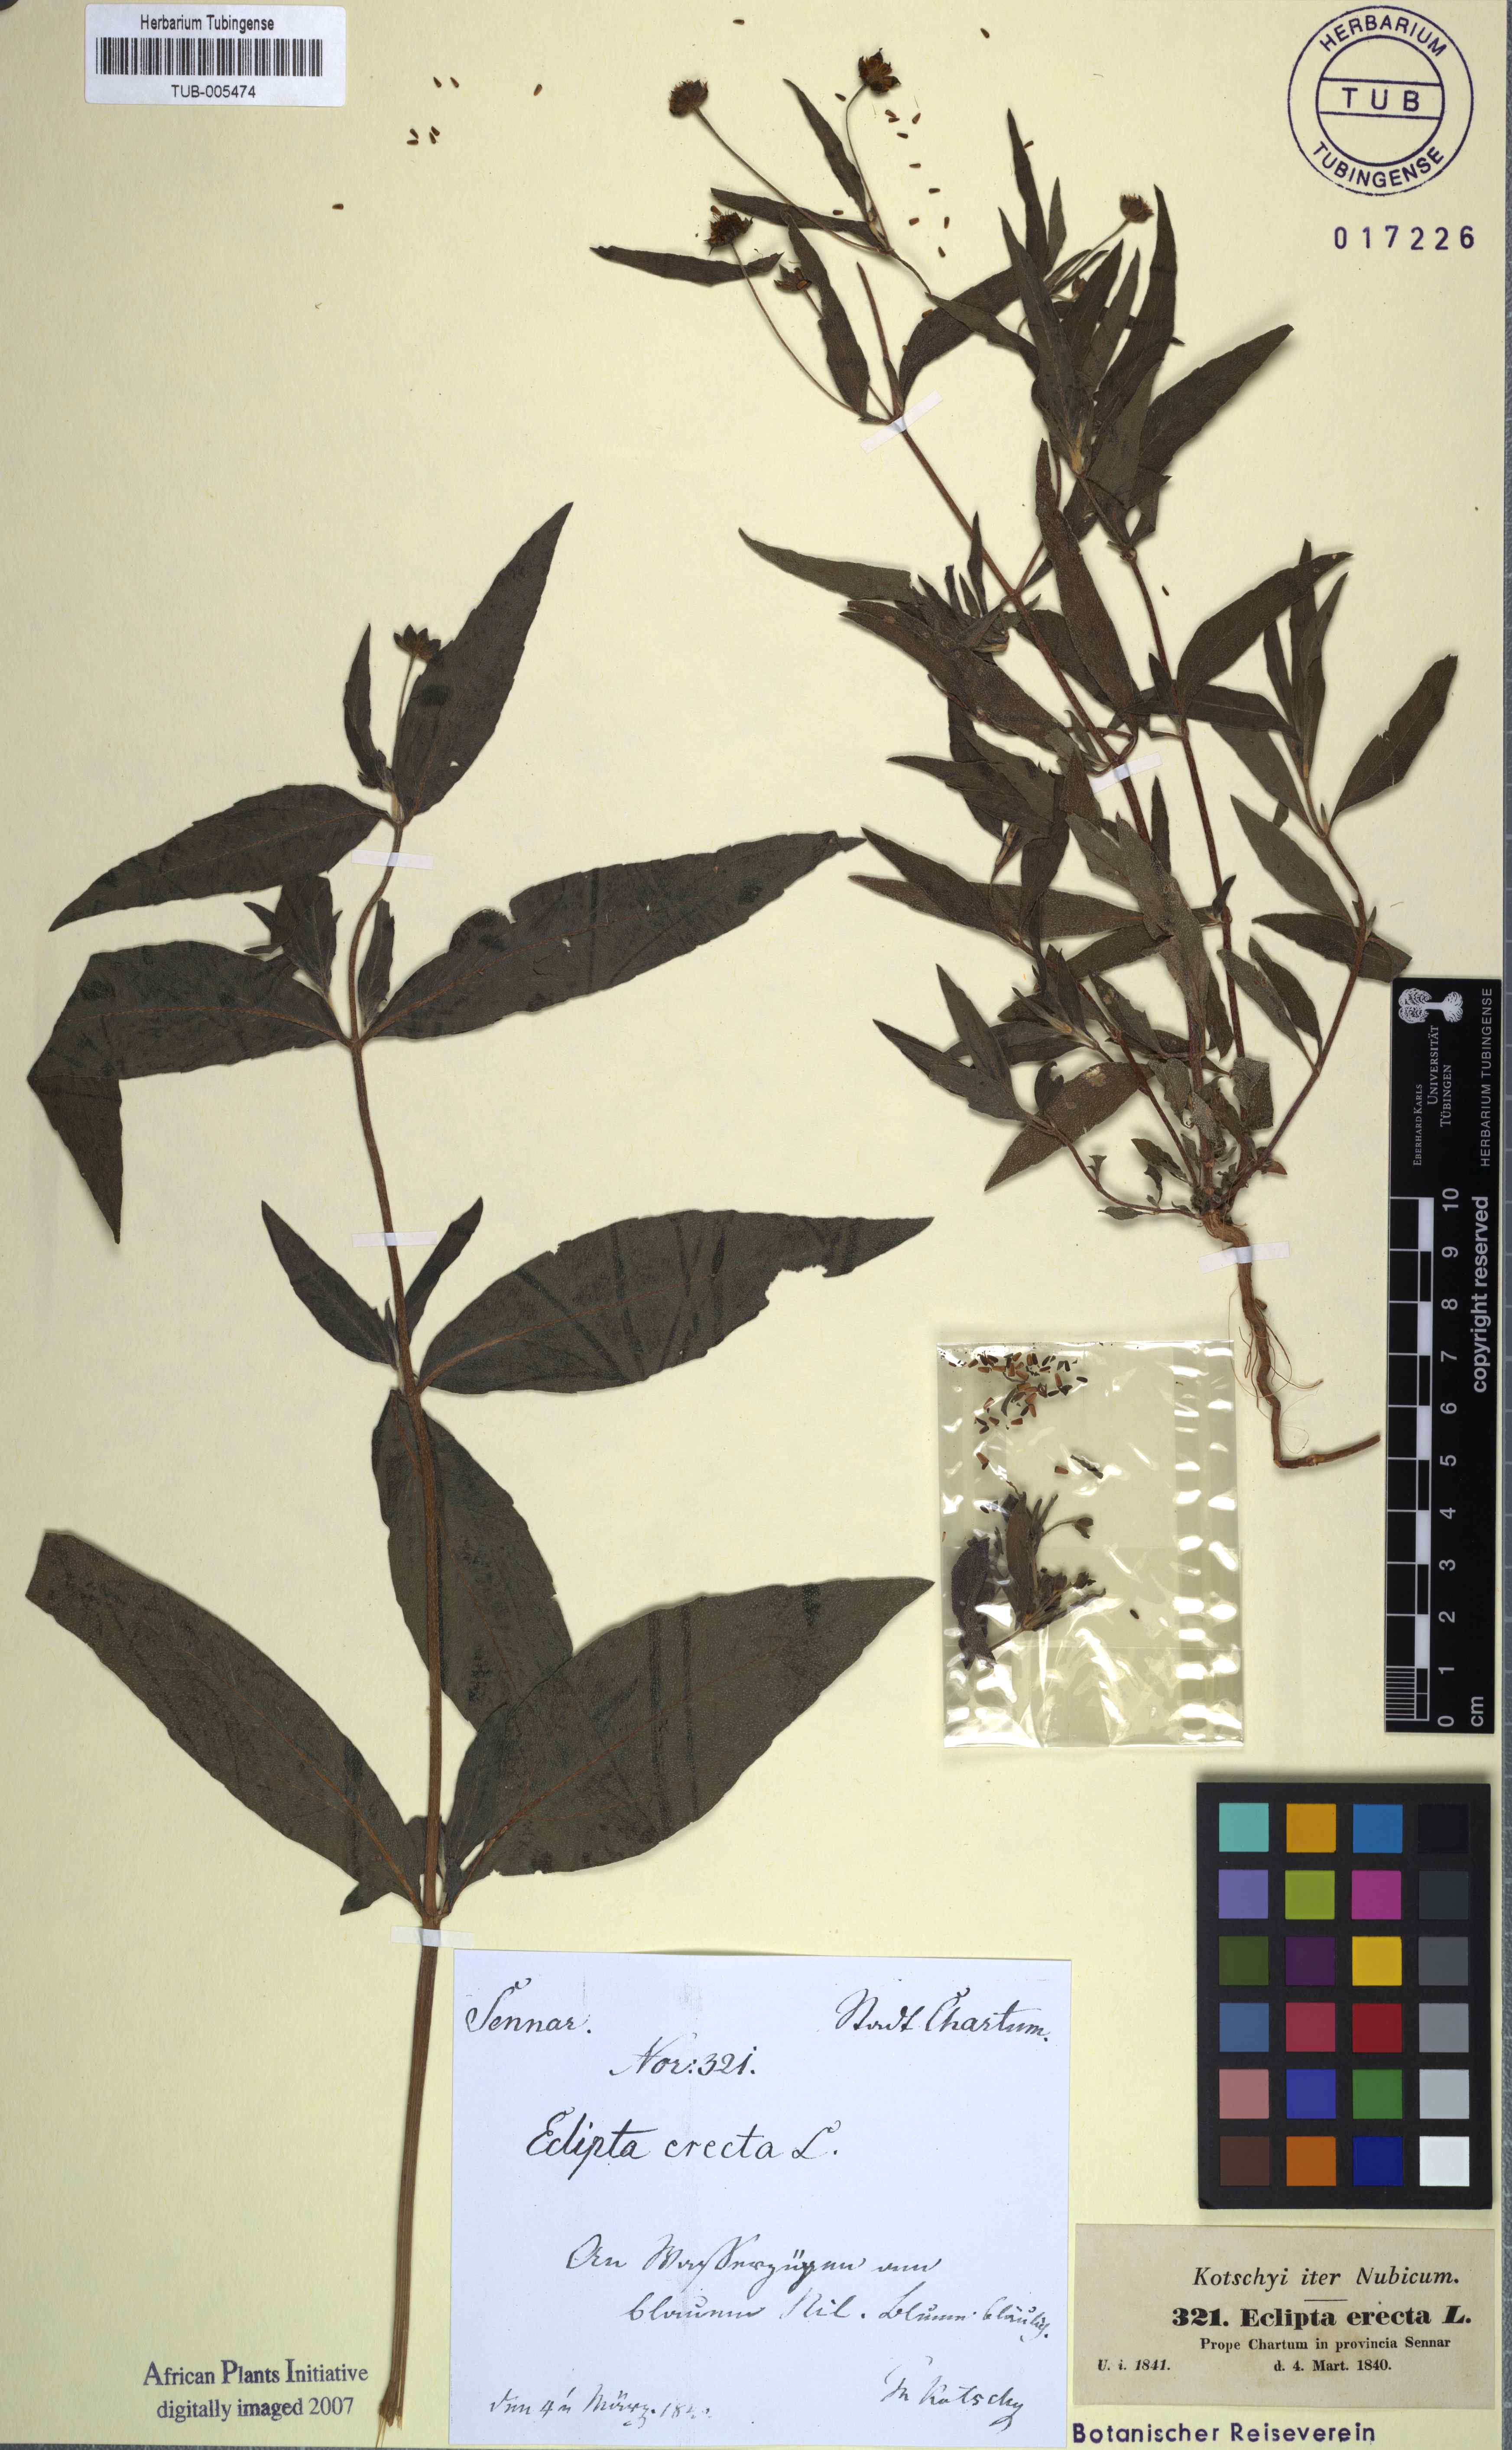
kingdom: Plantae
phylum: Tracheophyta
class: Magnoliopsida
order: Asterales
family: Asteraceae
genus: Eclipta
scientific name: Eclipta alba
